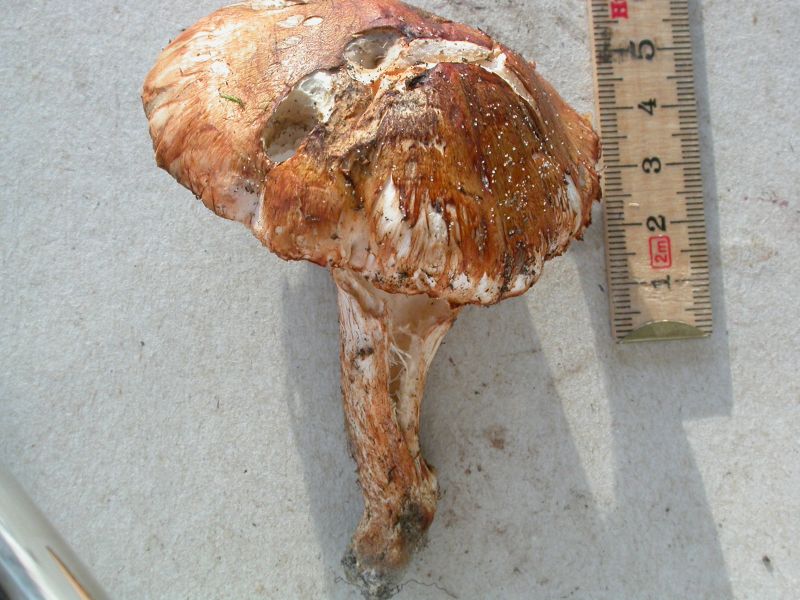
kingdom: Fungi
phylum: Basidiomycota
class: Agaricomycetes
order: Agaricales
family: Tricholomataceae
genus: Tricholoma
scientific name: Tricholoma focale
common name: halsbånd-ridderhat
